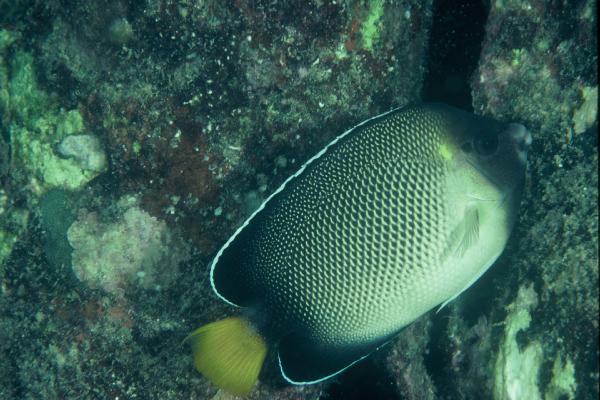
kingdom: Animalia
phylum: Chordata
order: Perciformes
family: Pomacanthidae
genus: Apolemichthys
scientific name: Apolemichthys xanthurus
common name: Indian yellowtail angelfish
